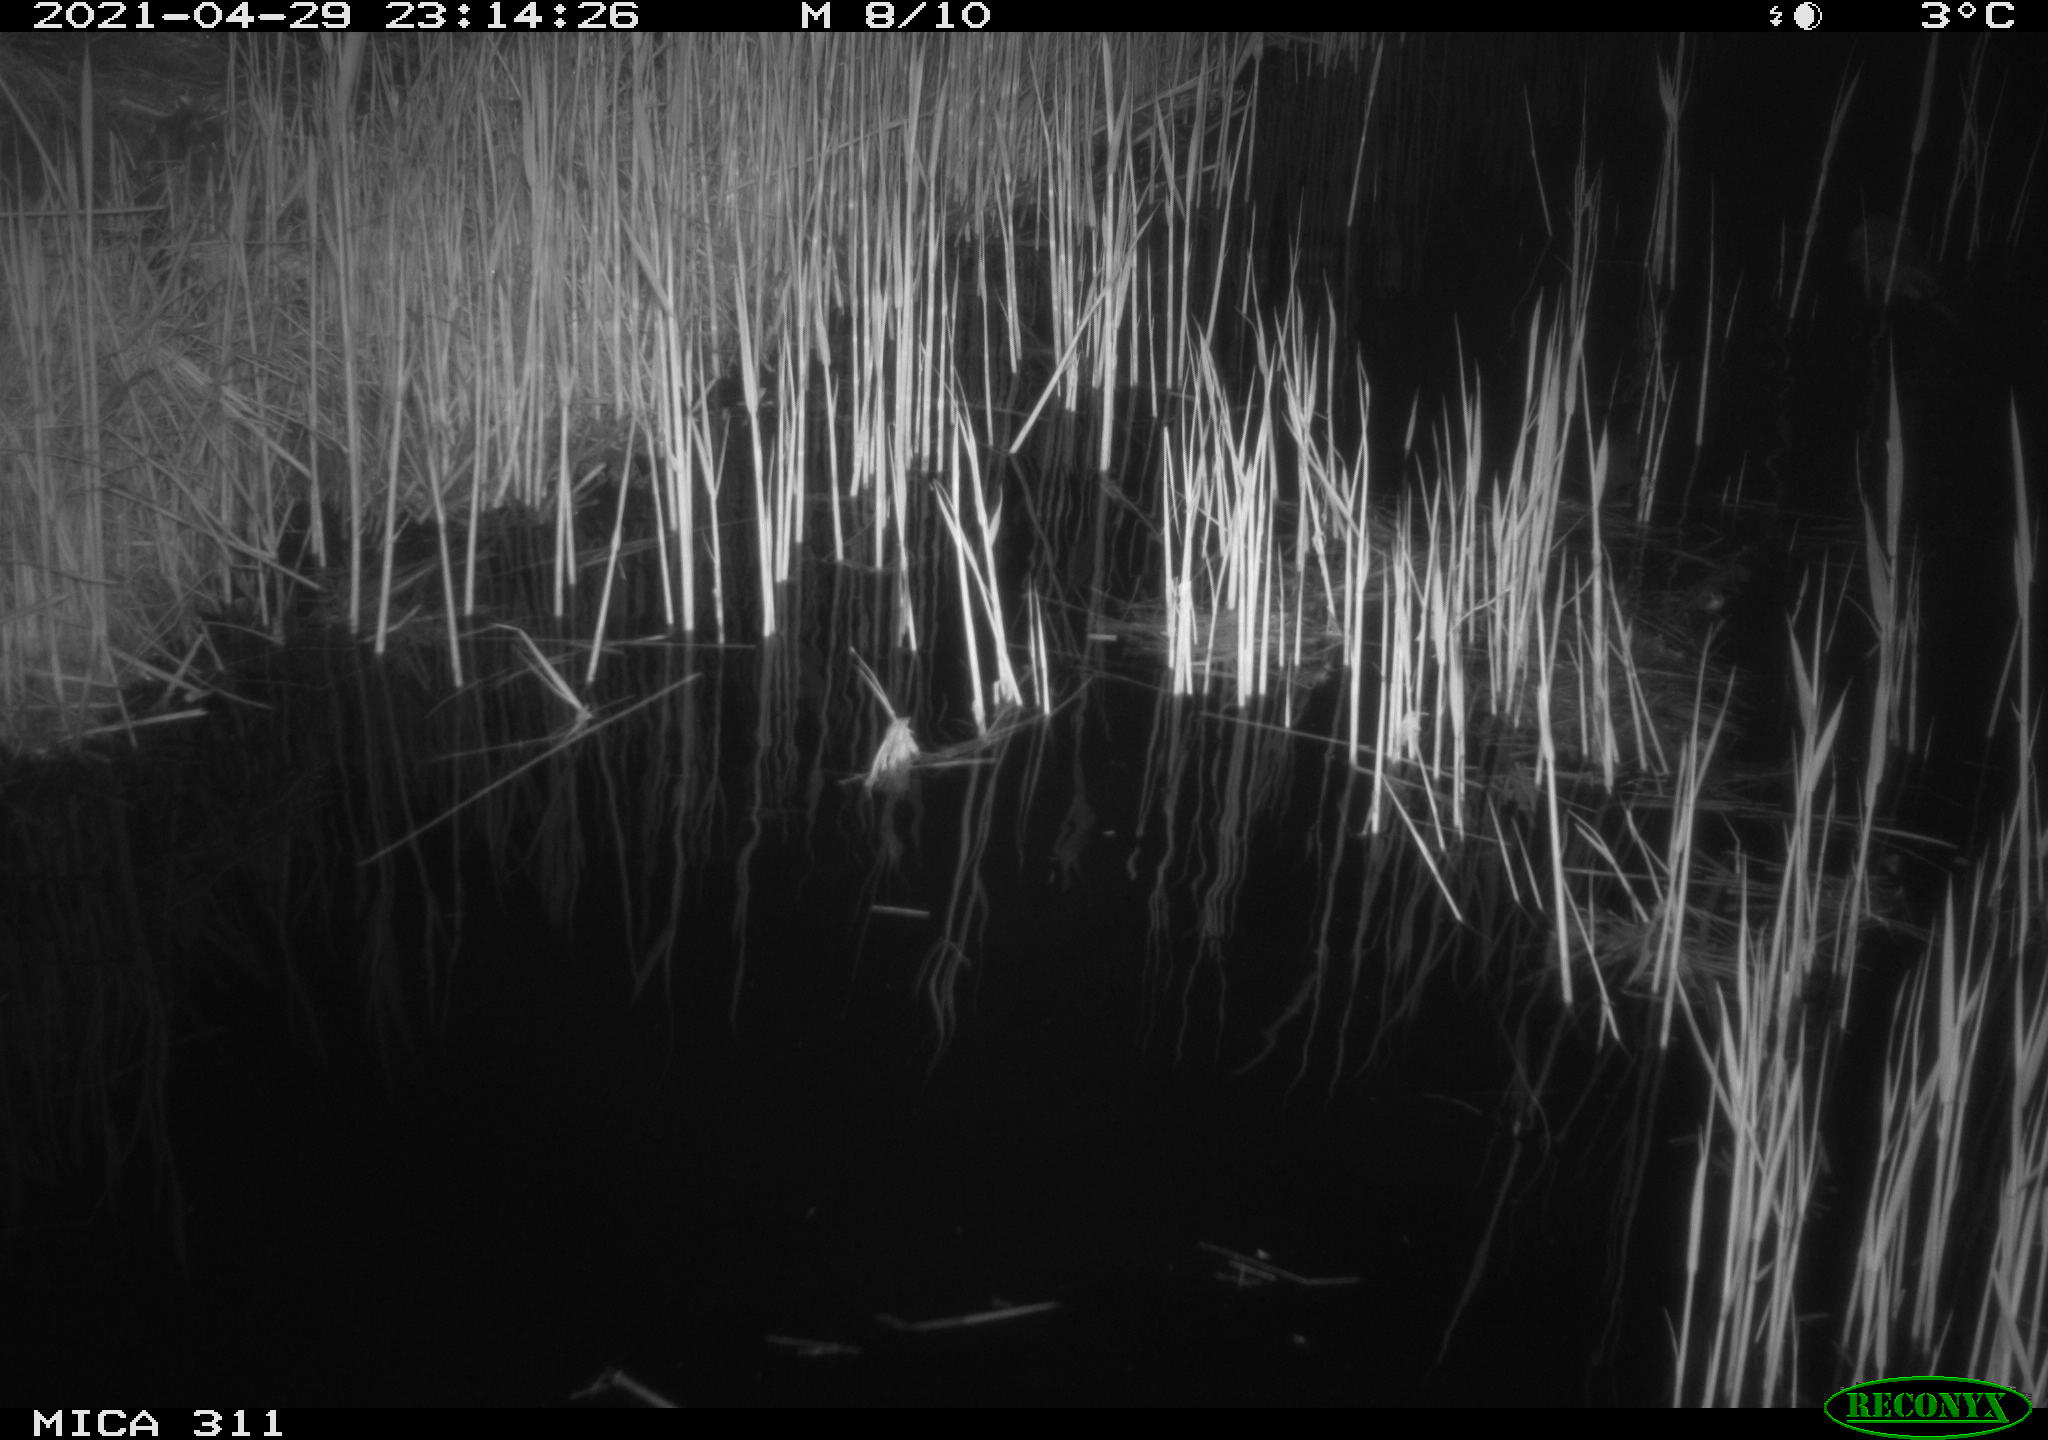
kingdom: Animalia
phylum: Chordata
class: Mammalia
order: Rodentia
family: Cricetidae
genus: Ondatra
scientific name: Ondatra zibethicus
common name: Muskrat
